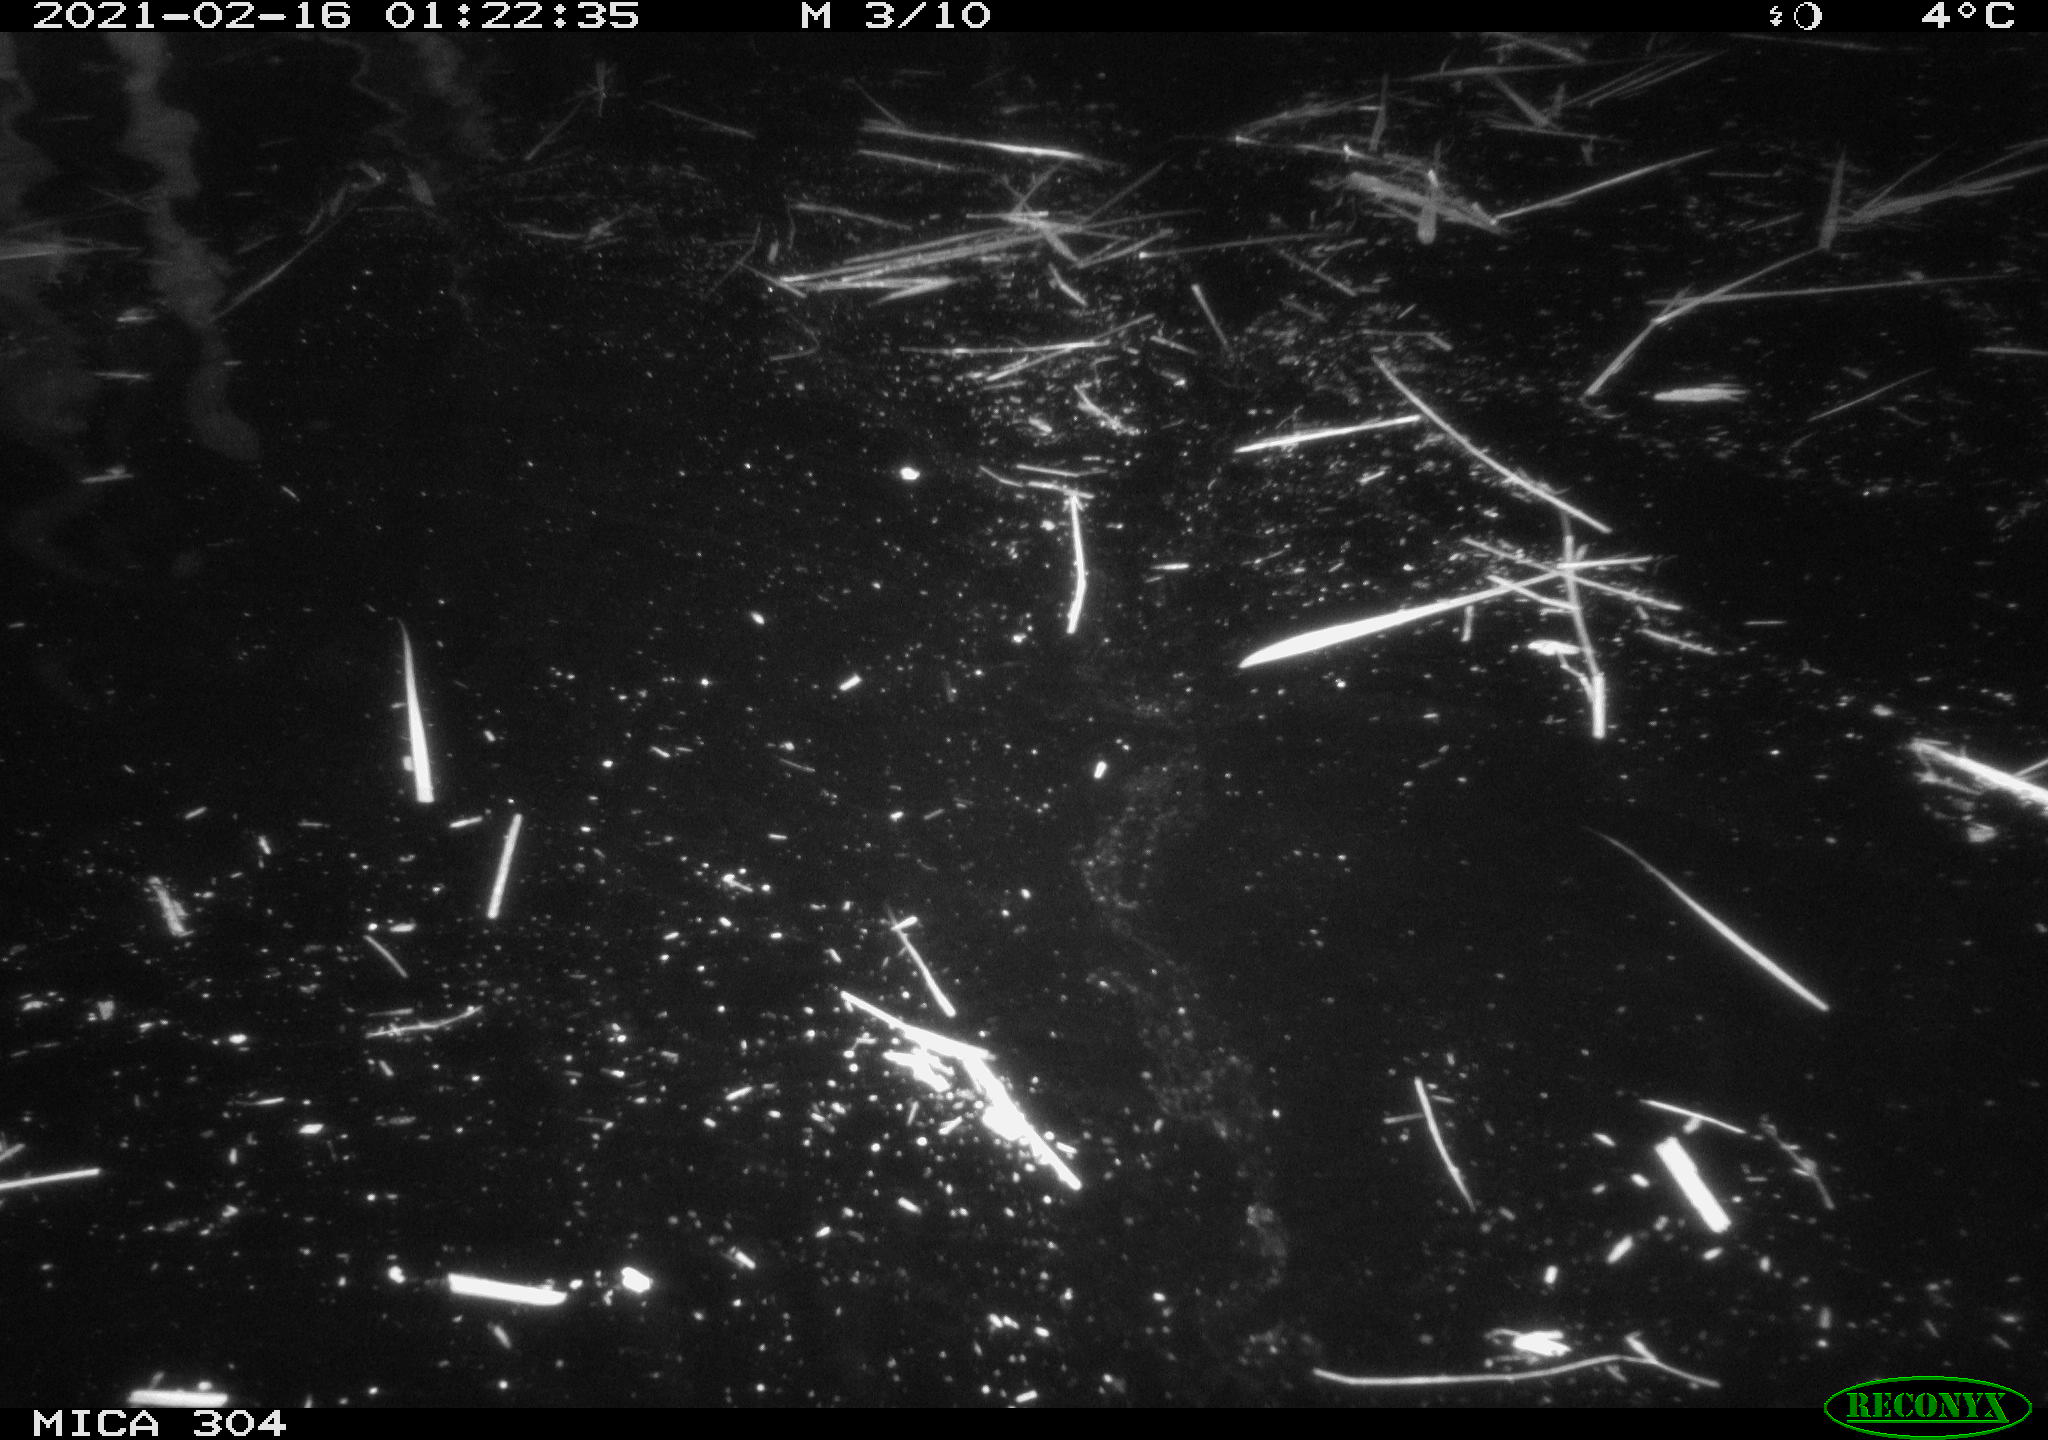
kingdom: Animalia
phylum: Chordata
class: Mammalia
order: Rodentia
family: Cricetidae
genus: Ondatra
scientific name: Ondatra zibethicus
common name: Muskrat
